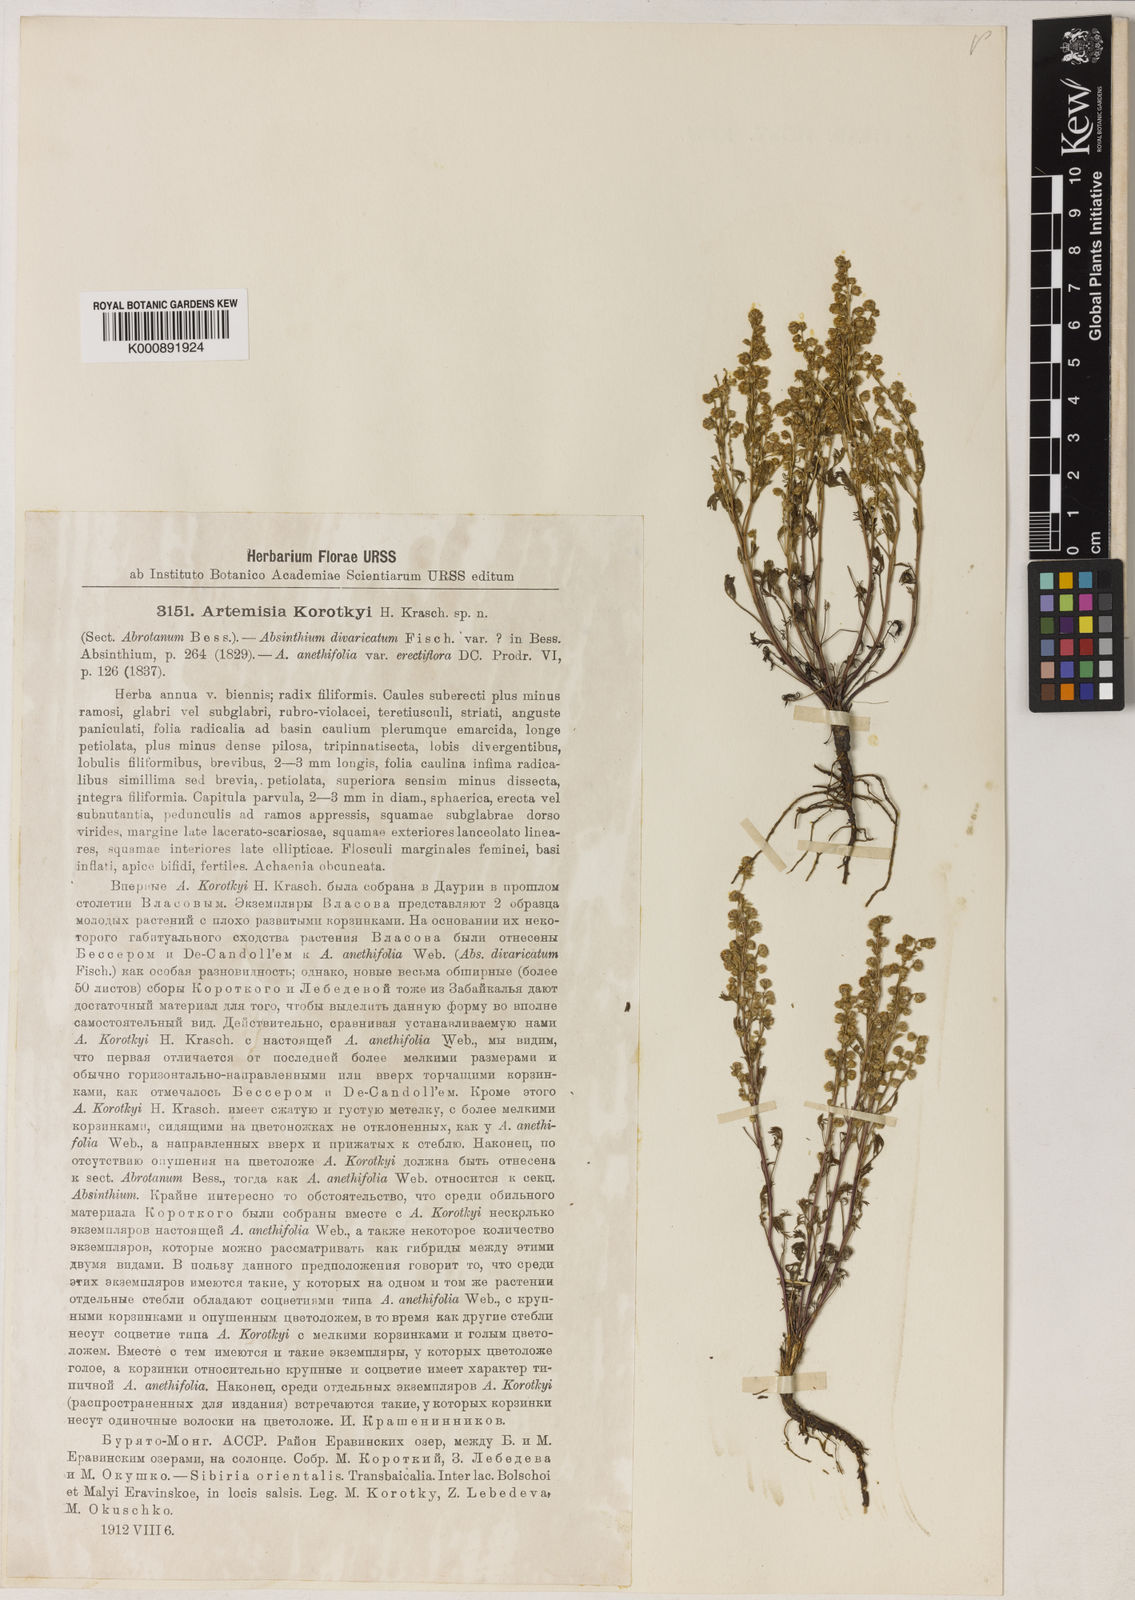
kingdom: Plantae
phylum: Tracheophyta
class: Magnoliopsida
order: Asterales
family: Asteraceae
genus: Artemisia
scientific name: Artemisia anethoides
